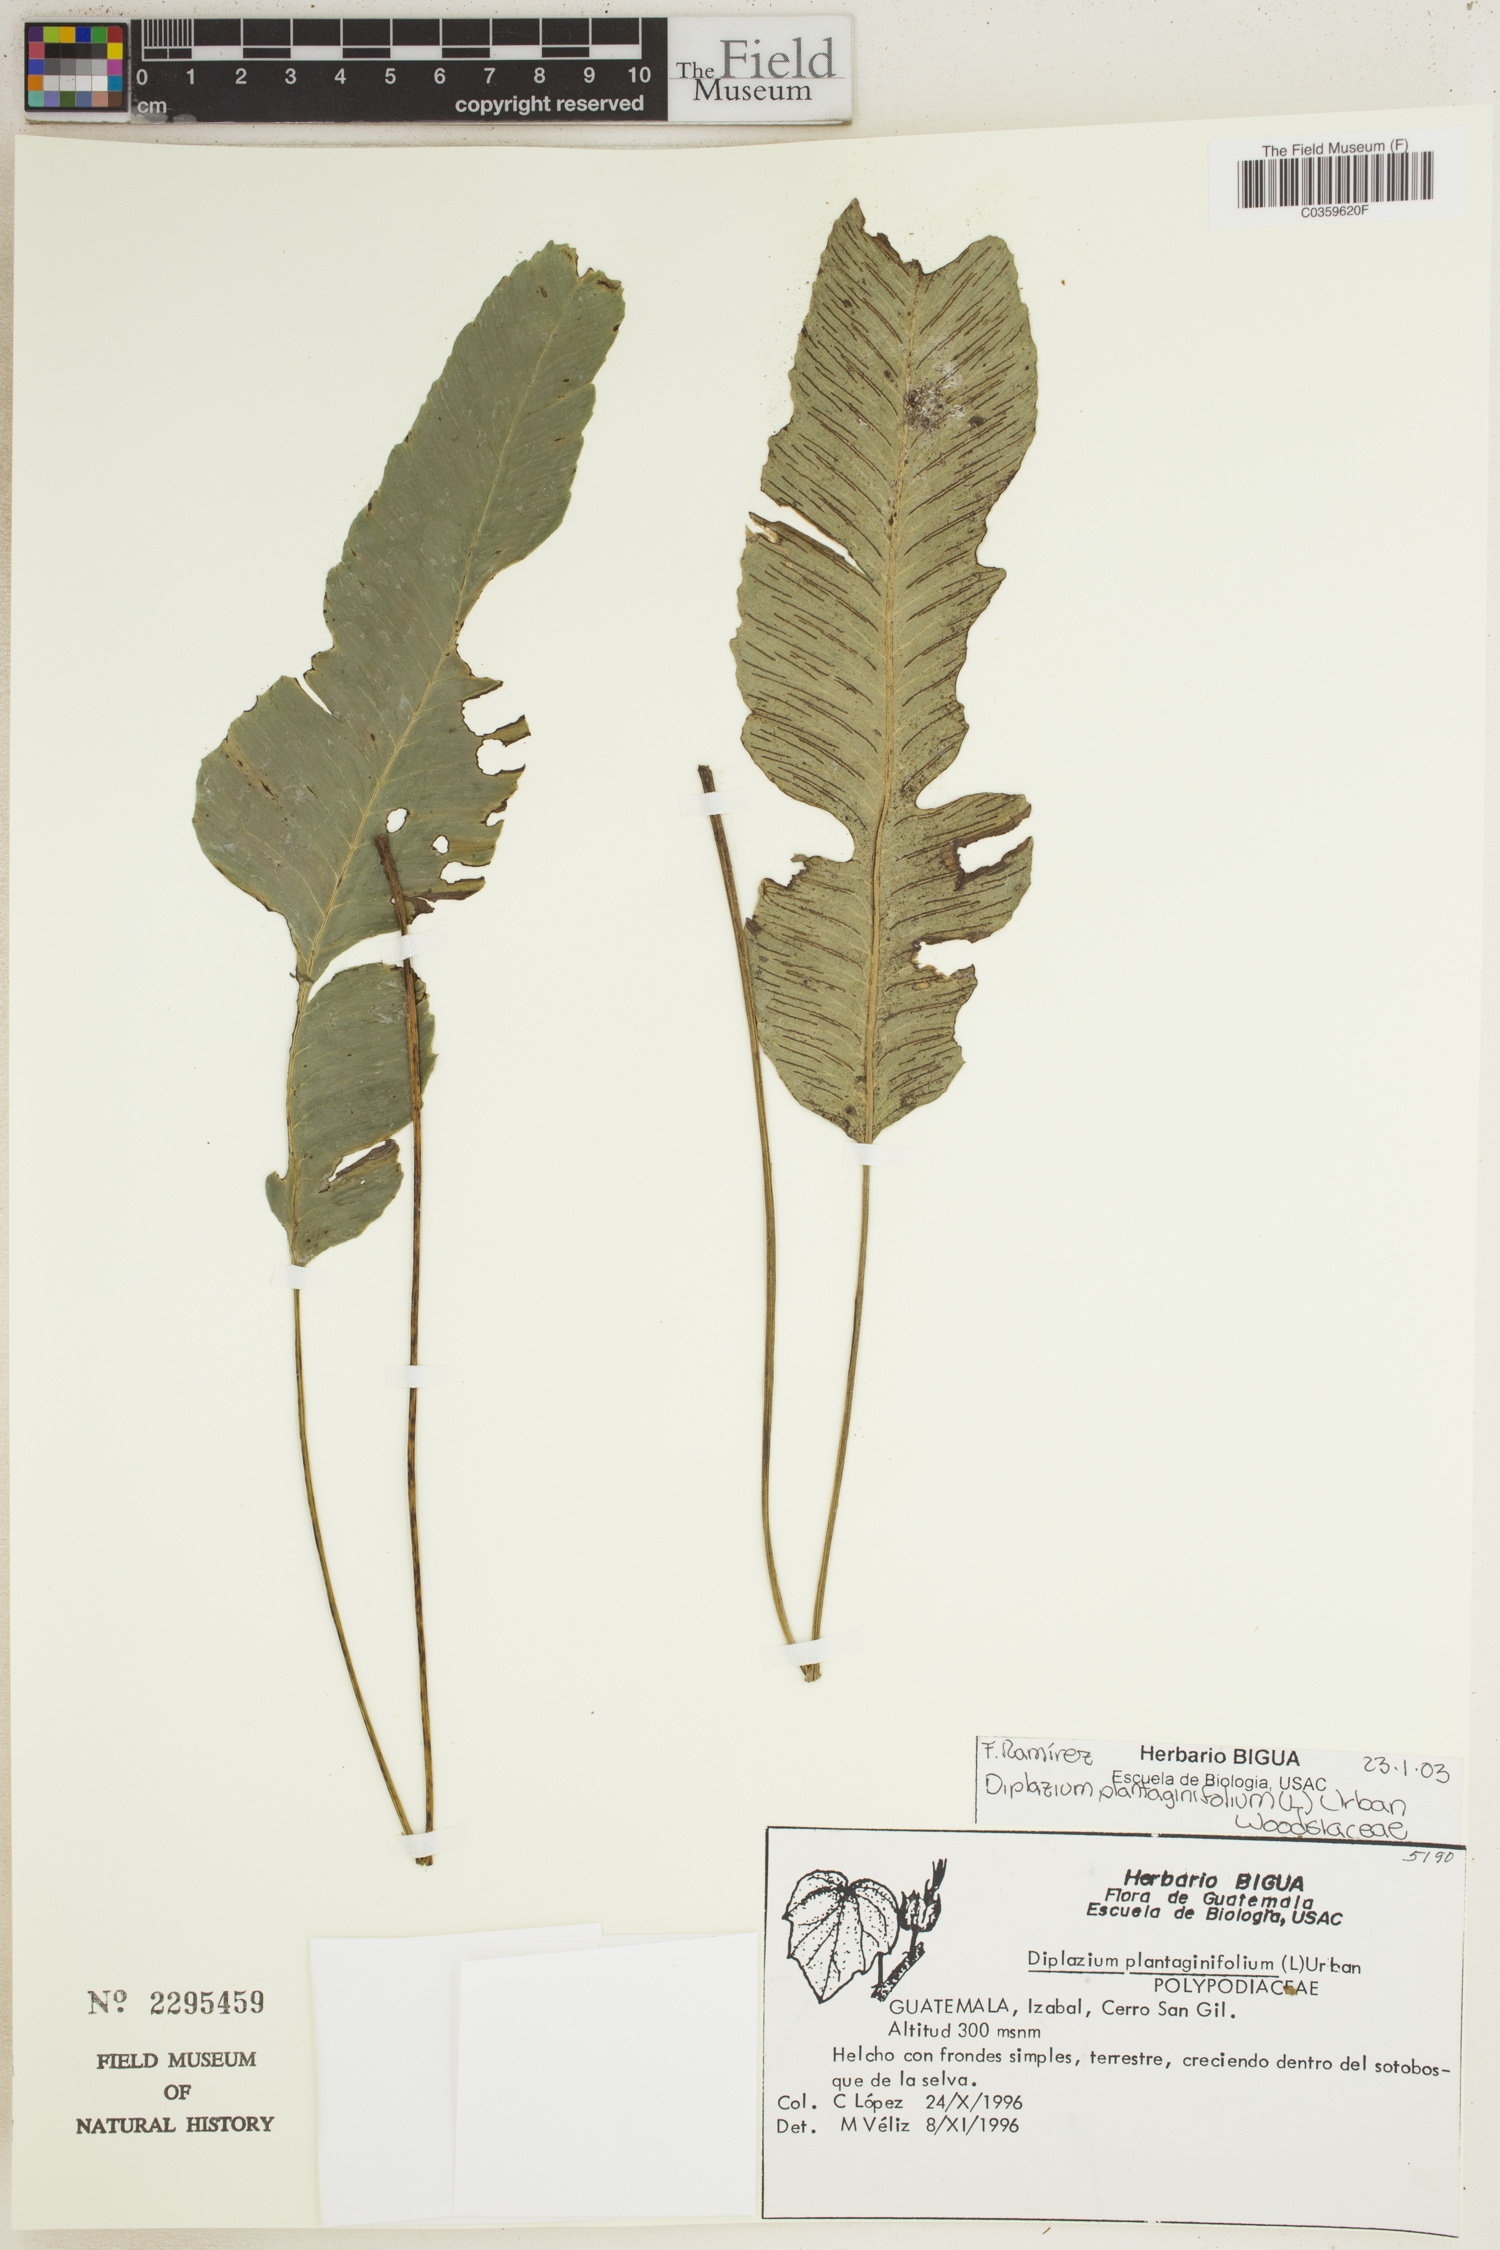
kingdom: Plantae
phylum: Tracheophyta
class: Polypodiopsida
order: Polypodiales
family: Athyriaceae
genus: Diplazium
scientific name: Diplazium plantaginifolium
